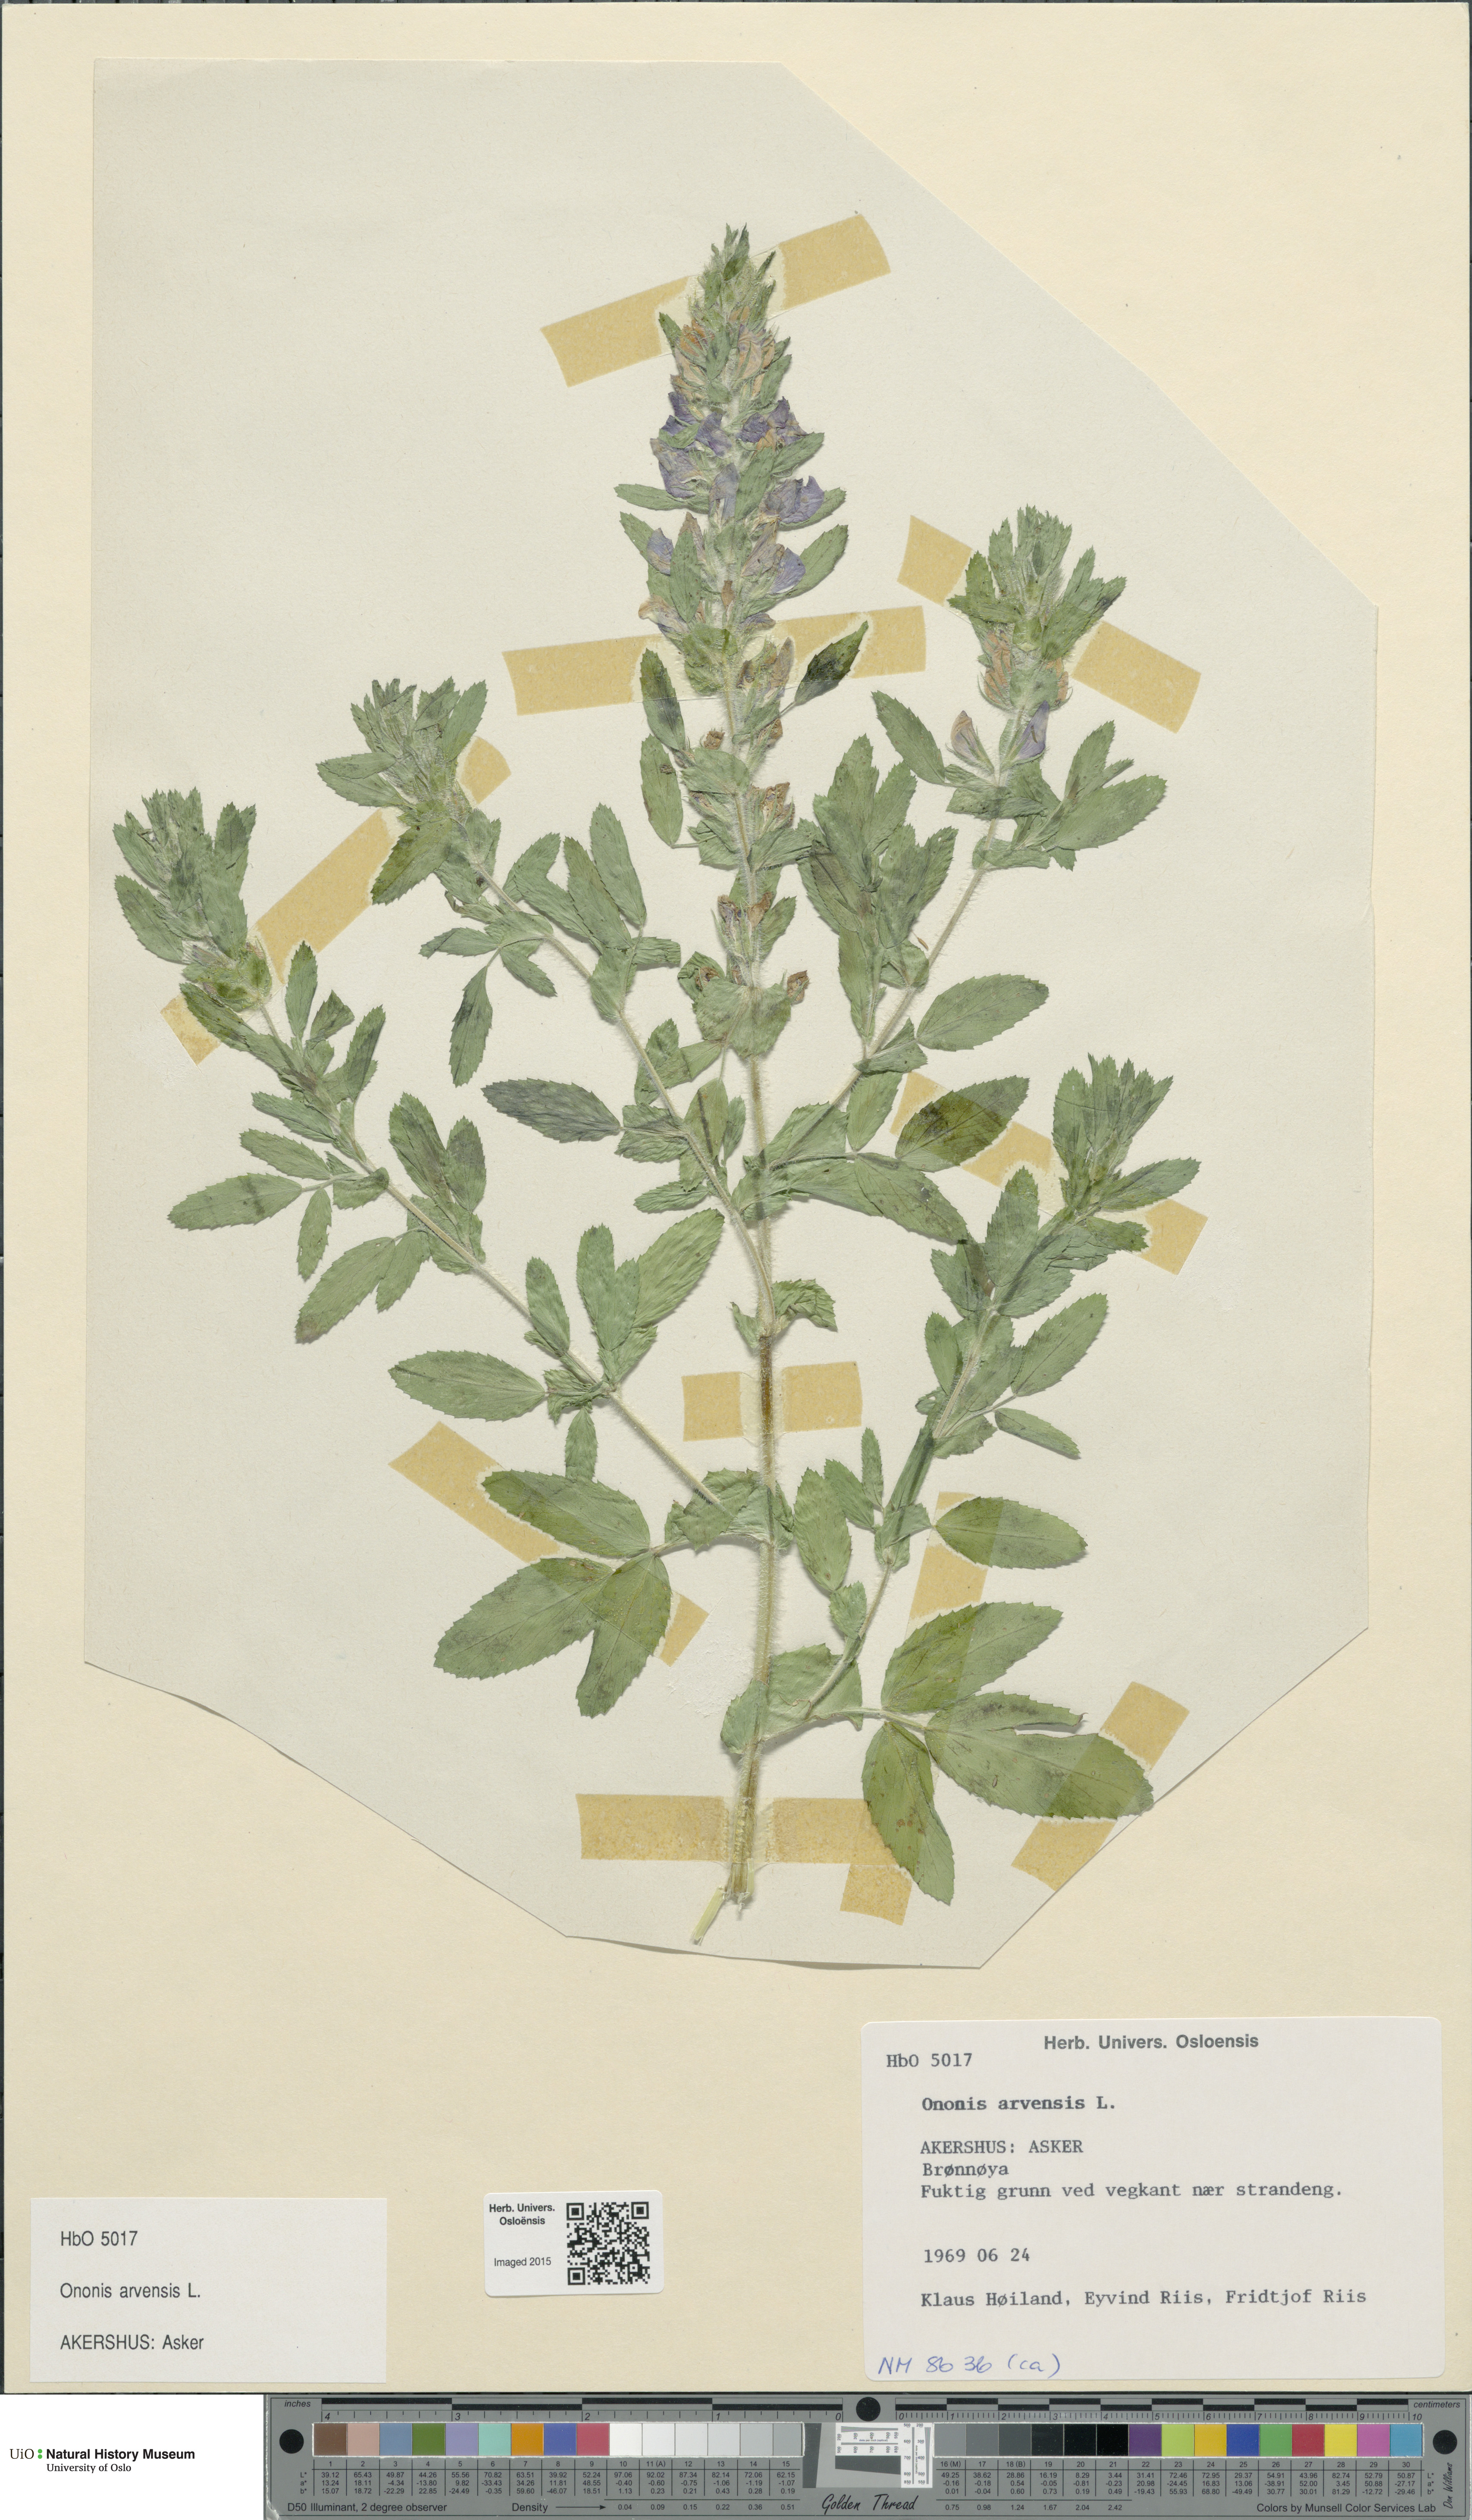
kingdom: Plantae
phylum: Tracheophyta
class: Magnoliopsida
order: Fabales
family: Fabaceae
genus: Ononis
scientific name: Ononis arvensis
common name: Field restharrow
